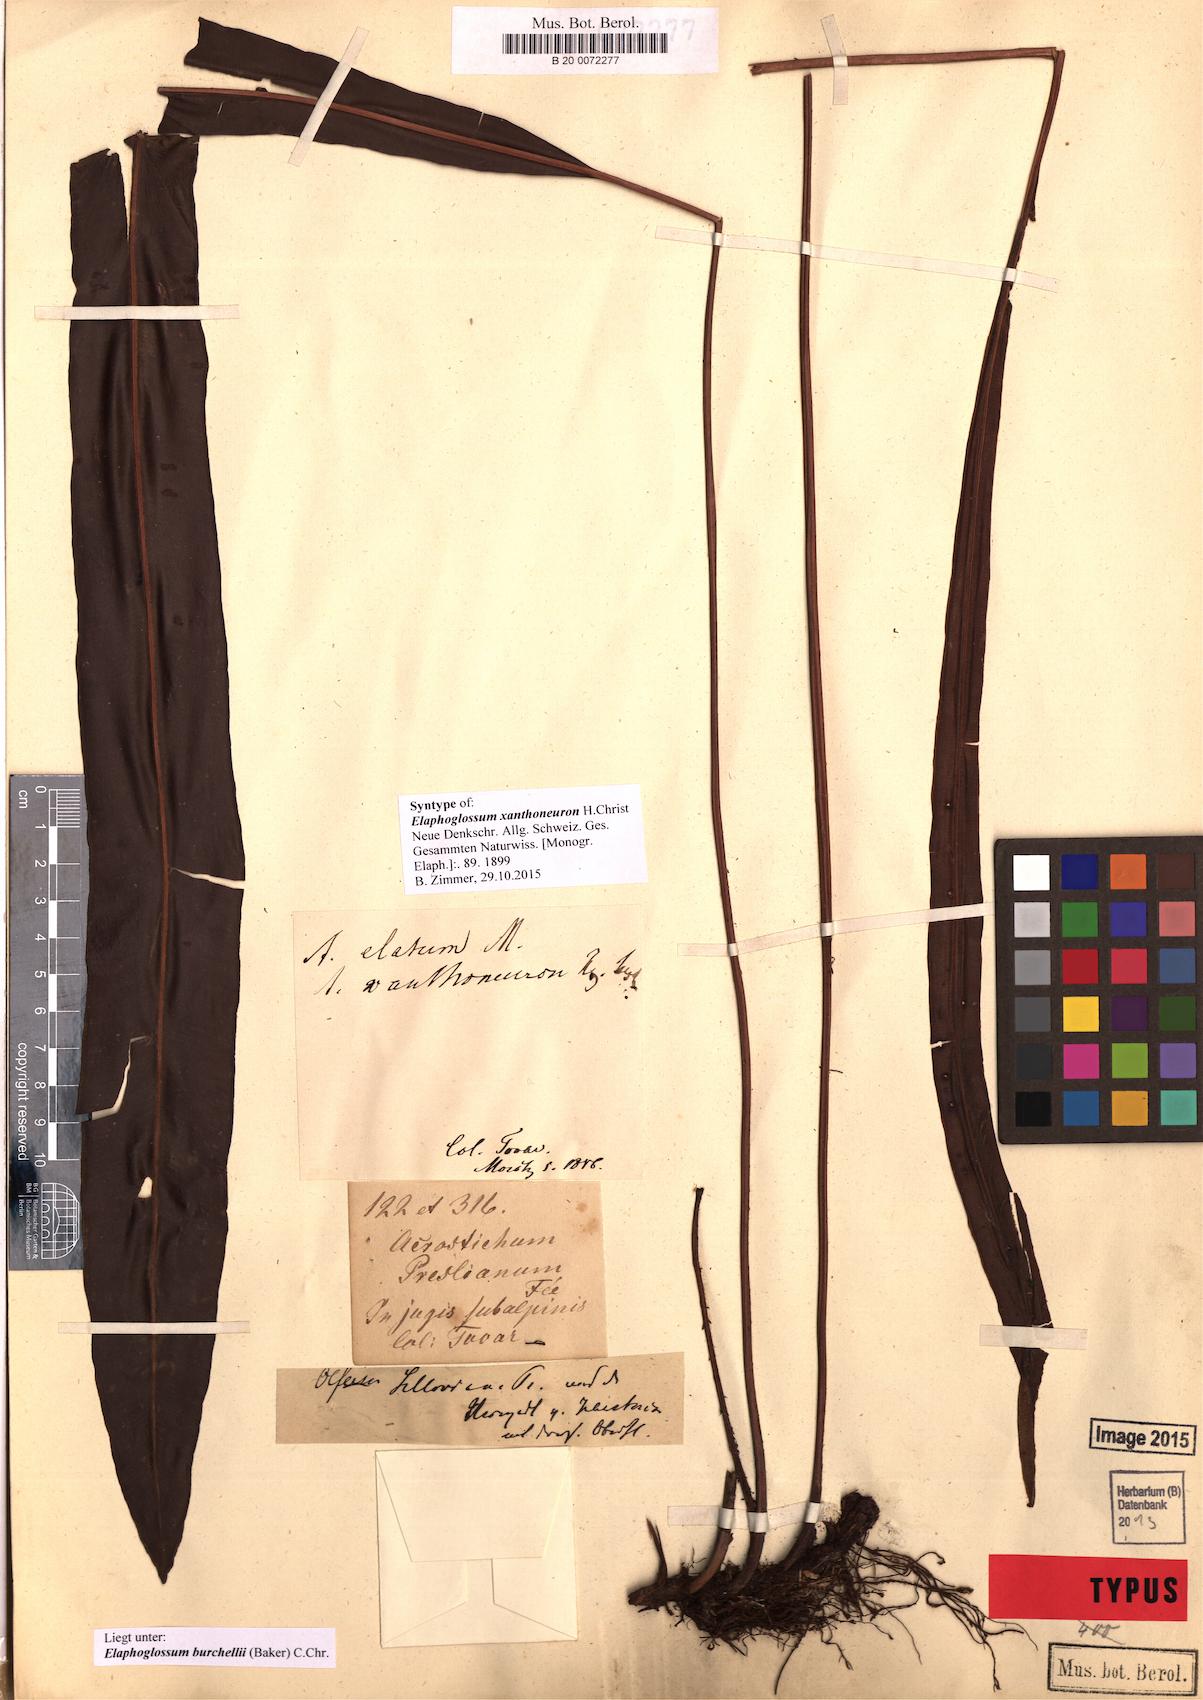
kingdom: Plantae
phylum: Tracheophyta
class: Polypodiopsida
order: Polypodiales
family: Dryopteridaceae
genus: Elaphoglossum
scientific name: Elaphoglossum burchellii
